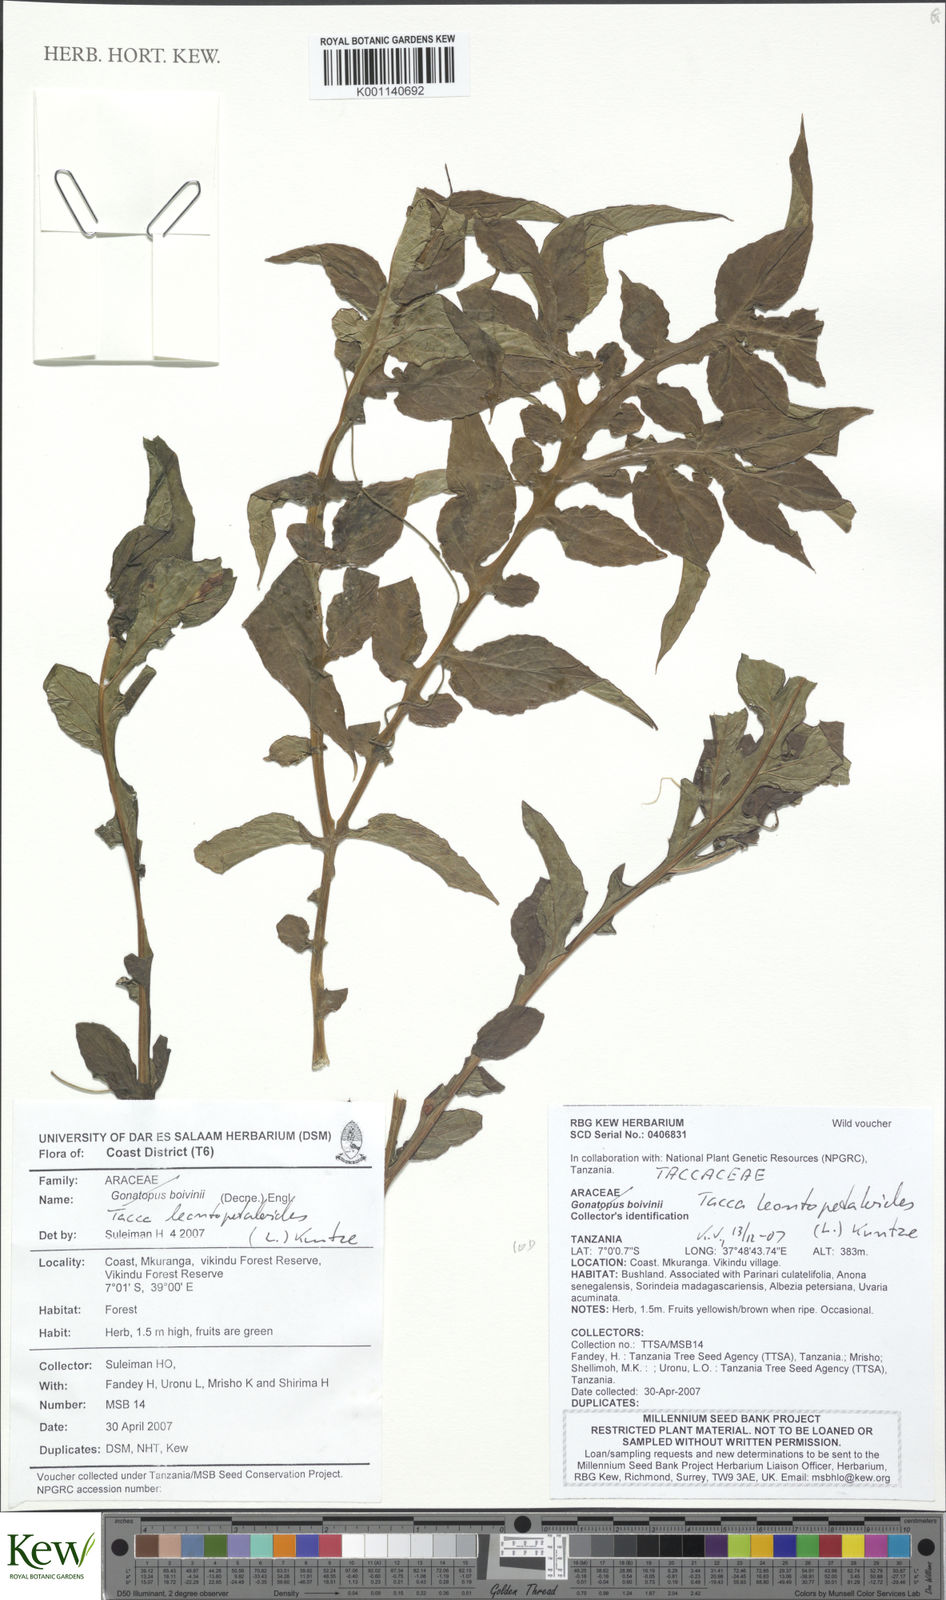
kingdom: Plantae
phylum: Tracheophyta
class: Liliopsida
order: Dioscoreales
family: Dioscoreaceae
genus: Tacca
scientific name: Tacca leontopetaloides
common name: Arrowroot
